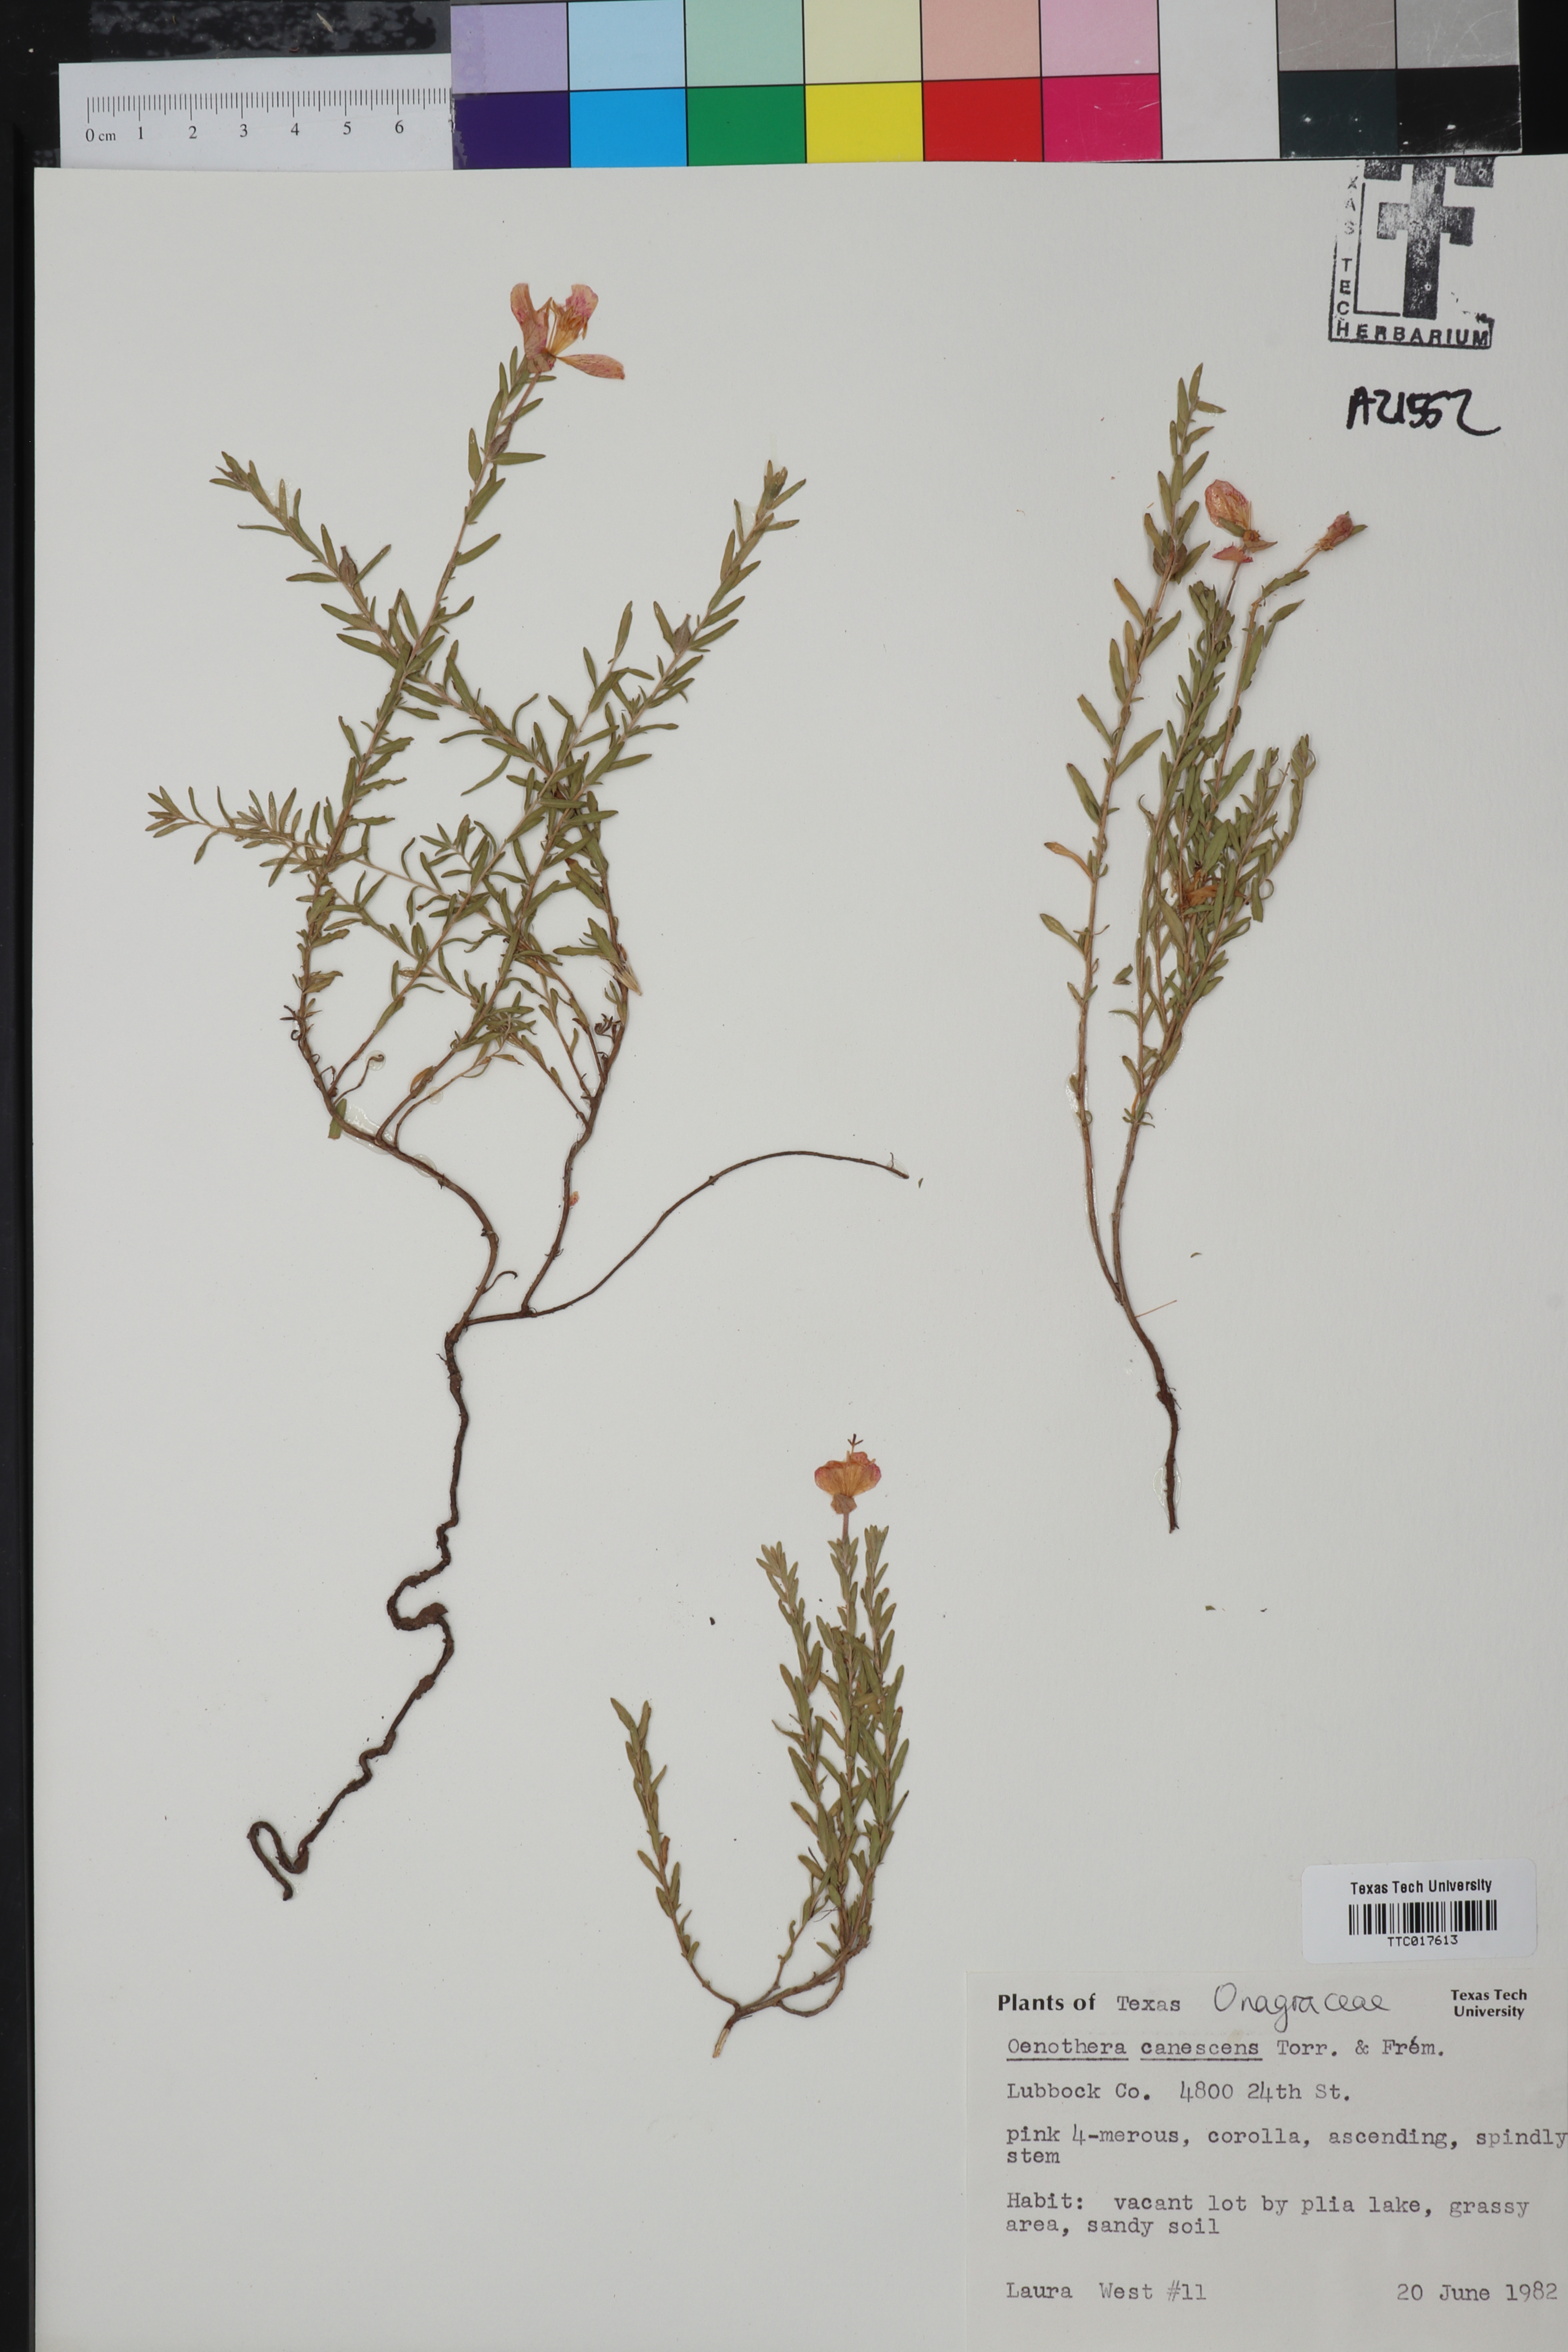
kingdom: Plantae
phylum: Tracheophyta
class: Magnoliopsida
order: Myrtales
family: Onagraceae
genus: Oenothera
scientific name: Oenothera canescens
